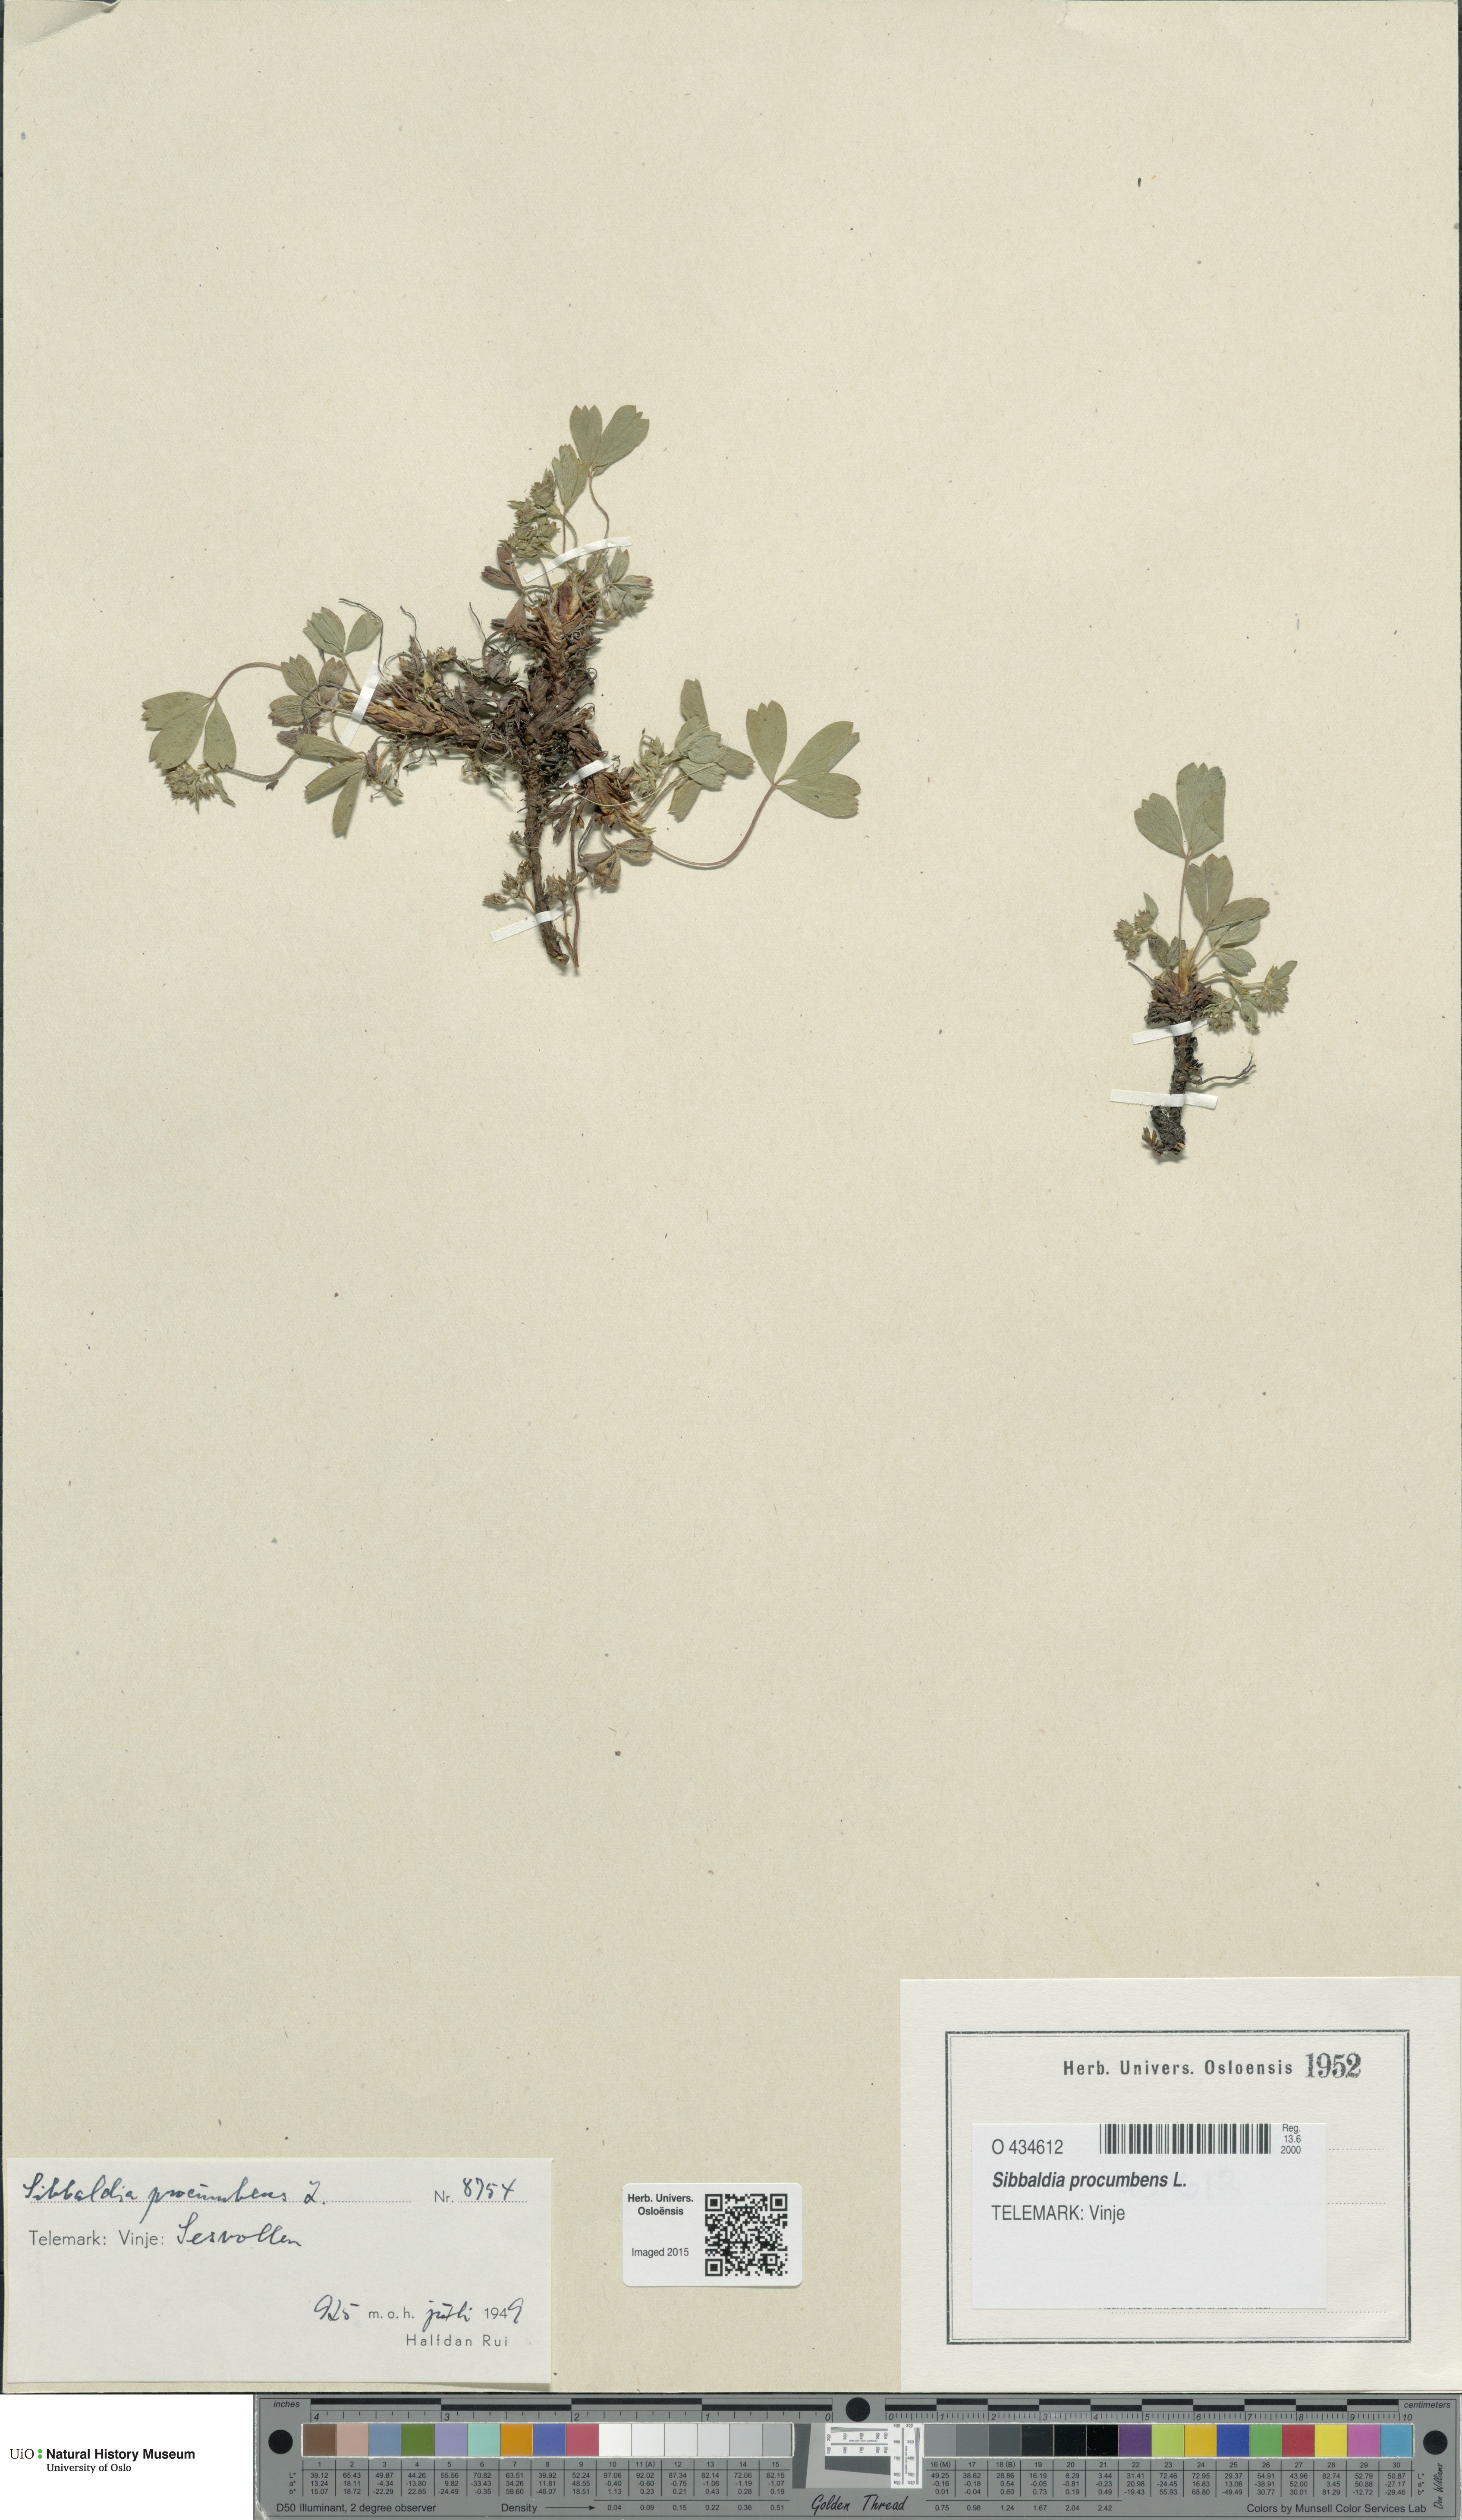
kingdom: Plantae
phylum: Tracheophyta
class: Magnoliopsida
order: Rosales
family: Rosaceae
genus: Sibbaldia
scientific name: Sibbaldia procumbens
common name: Creeping sibbaldia
